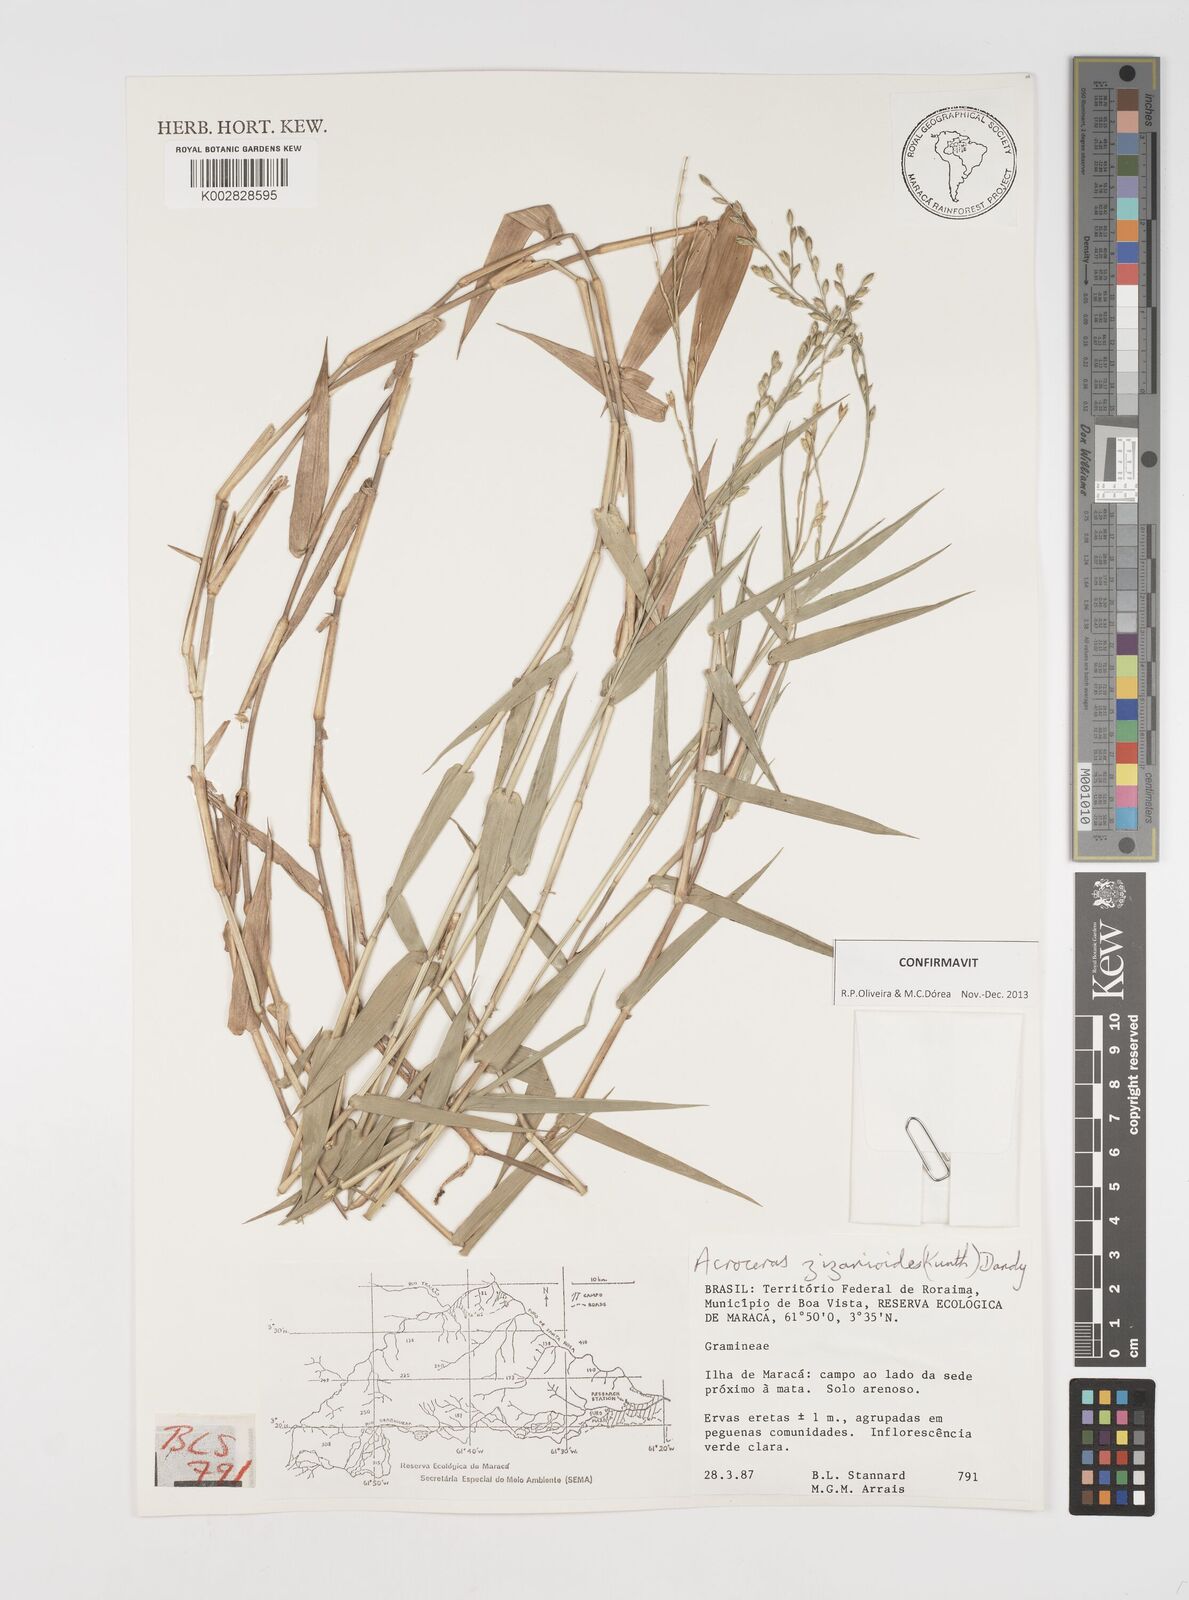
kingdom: Plantae
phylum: Tracheophyta
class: Liliopsida
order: Poales
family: Poaceae
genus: Acroceras
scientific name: Acroceras zizanioides
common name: Oat grass
